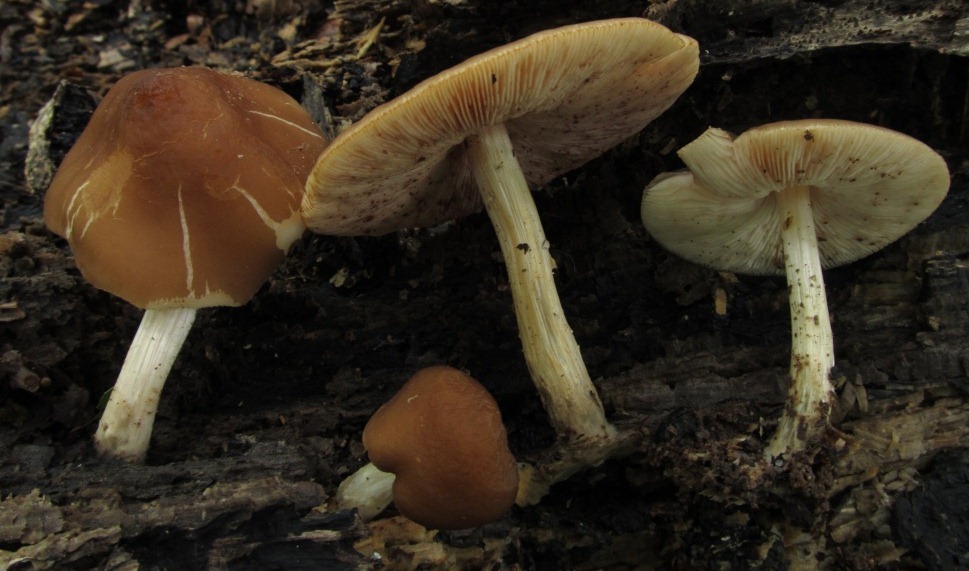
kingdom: Fungi
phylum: Basidiomycota
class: Agaricomycetes
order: Agaricales
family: Pluteaceae
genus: Pluteus
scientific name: Pluteus phlebophorus
